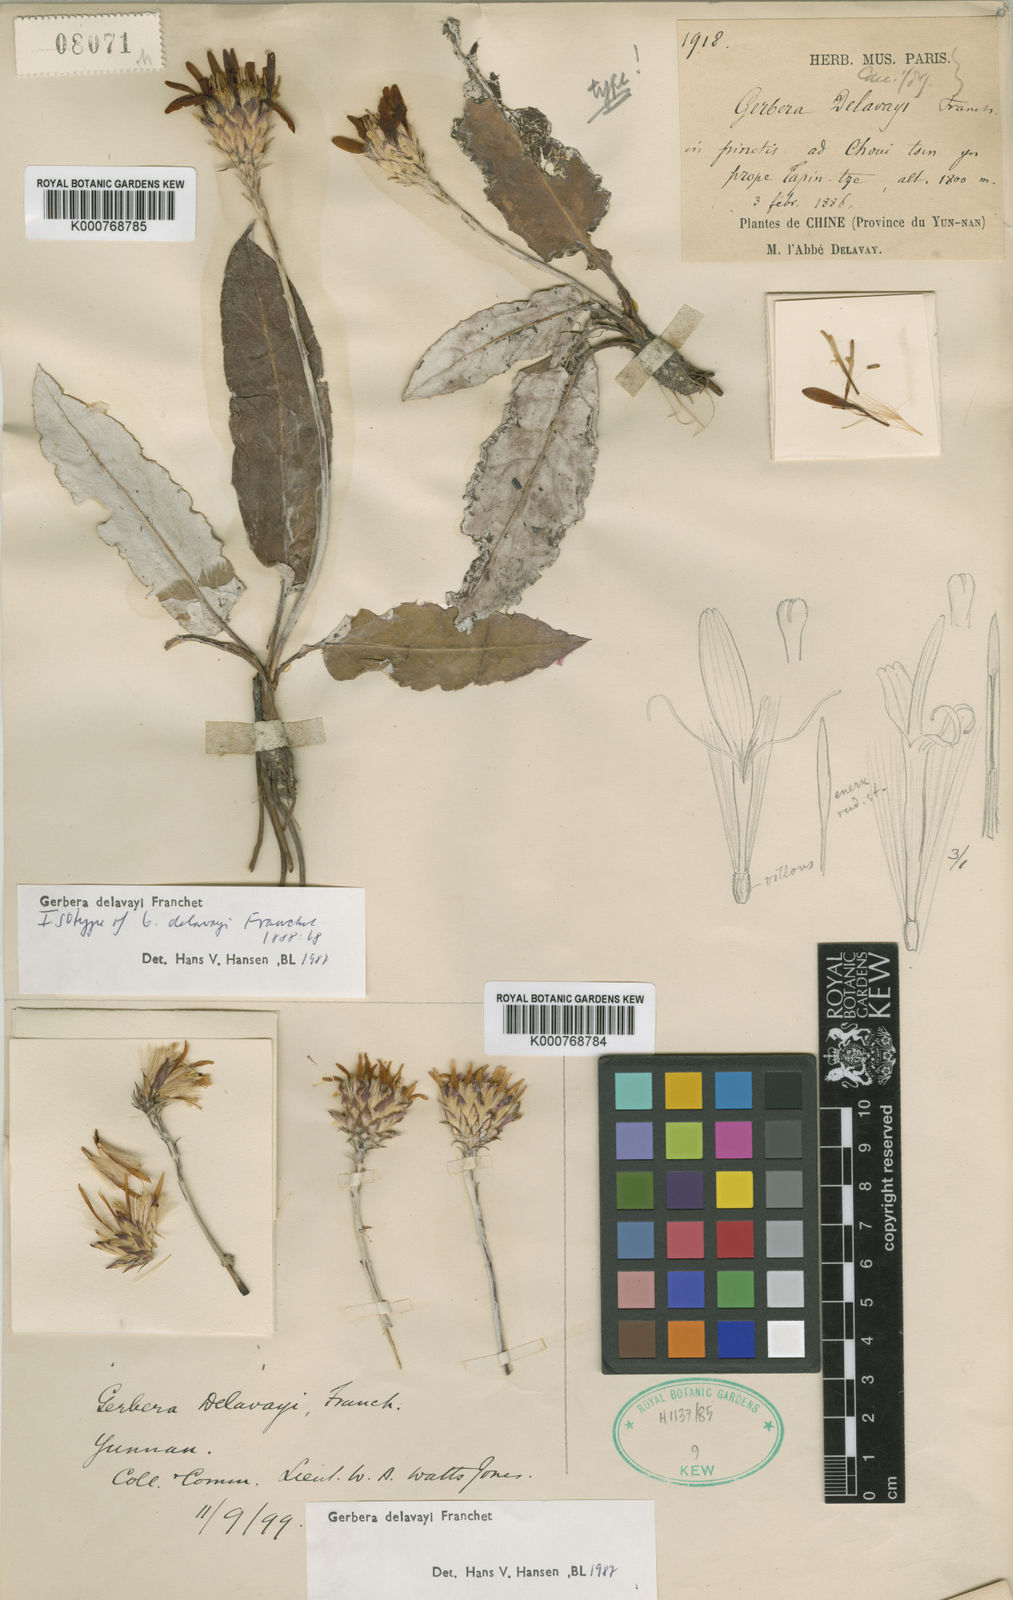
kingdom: Plantae
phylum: Tracheophyta
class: Magnoliopsida
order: Asterales
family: Asteraceae
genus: Oreoseris
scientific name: Oreoseris delavayi
